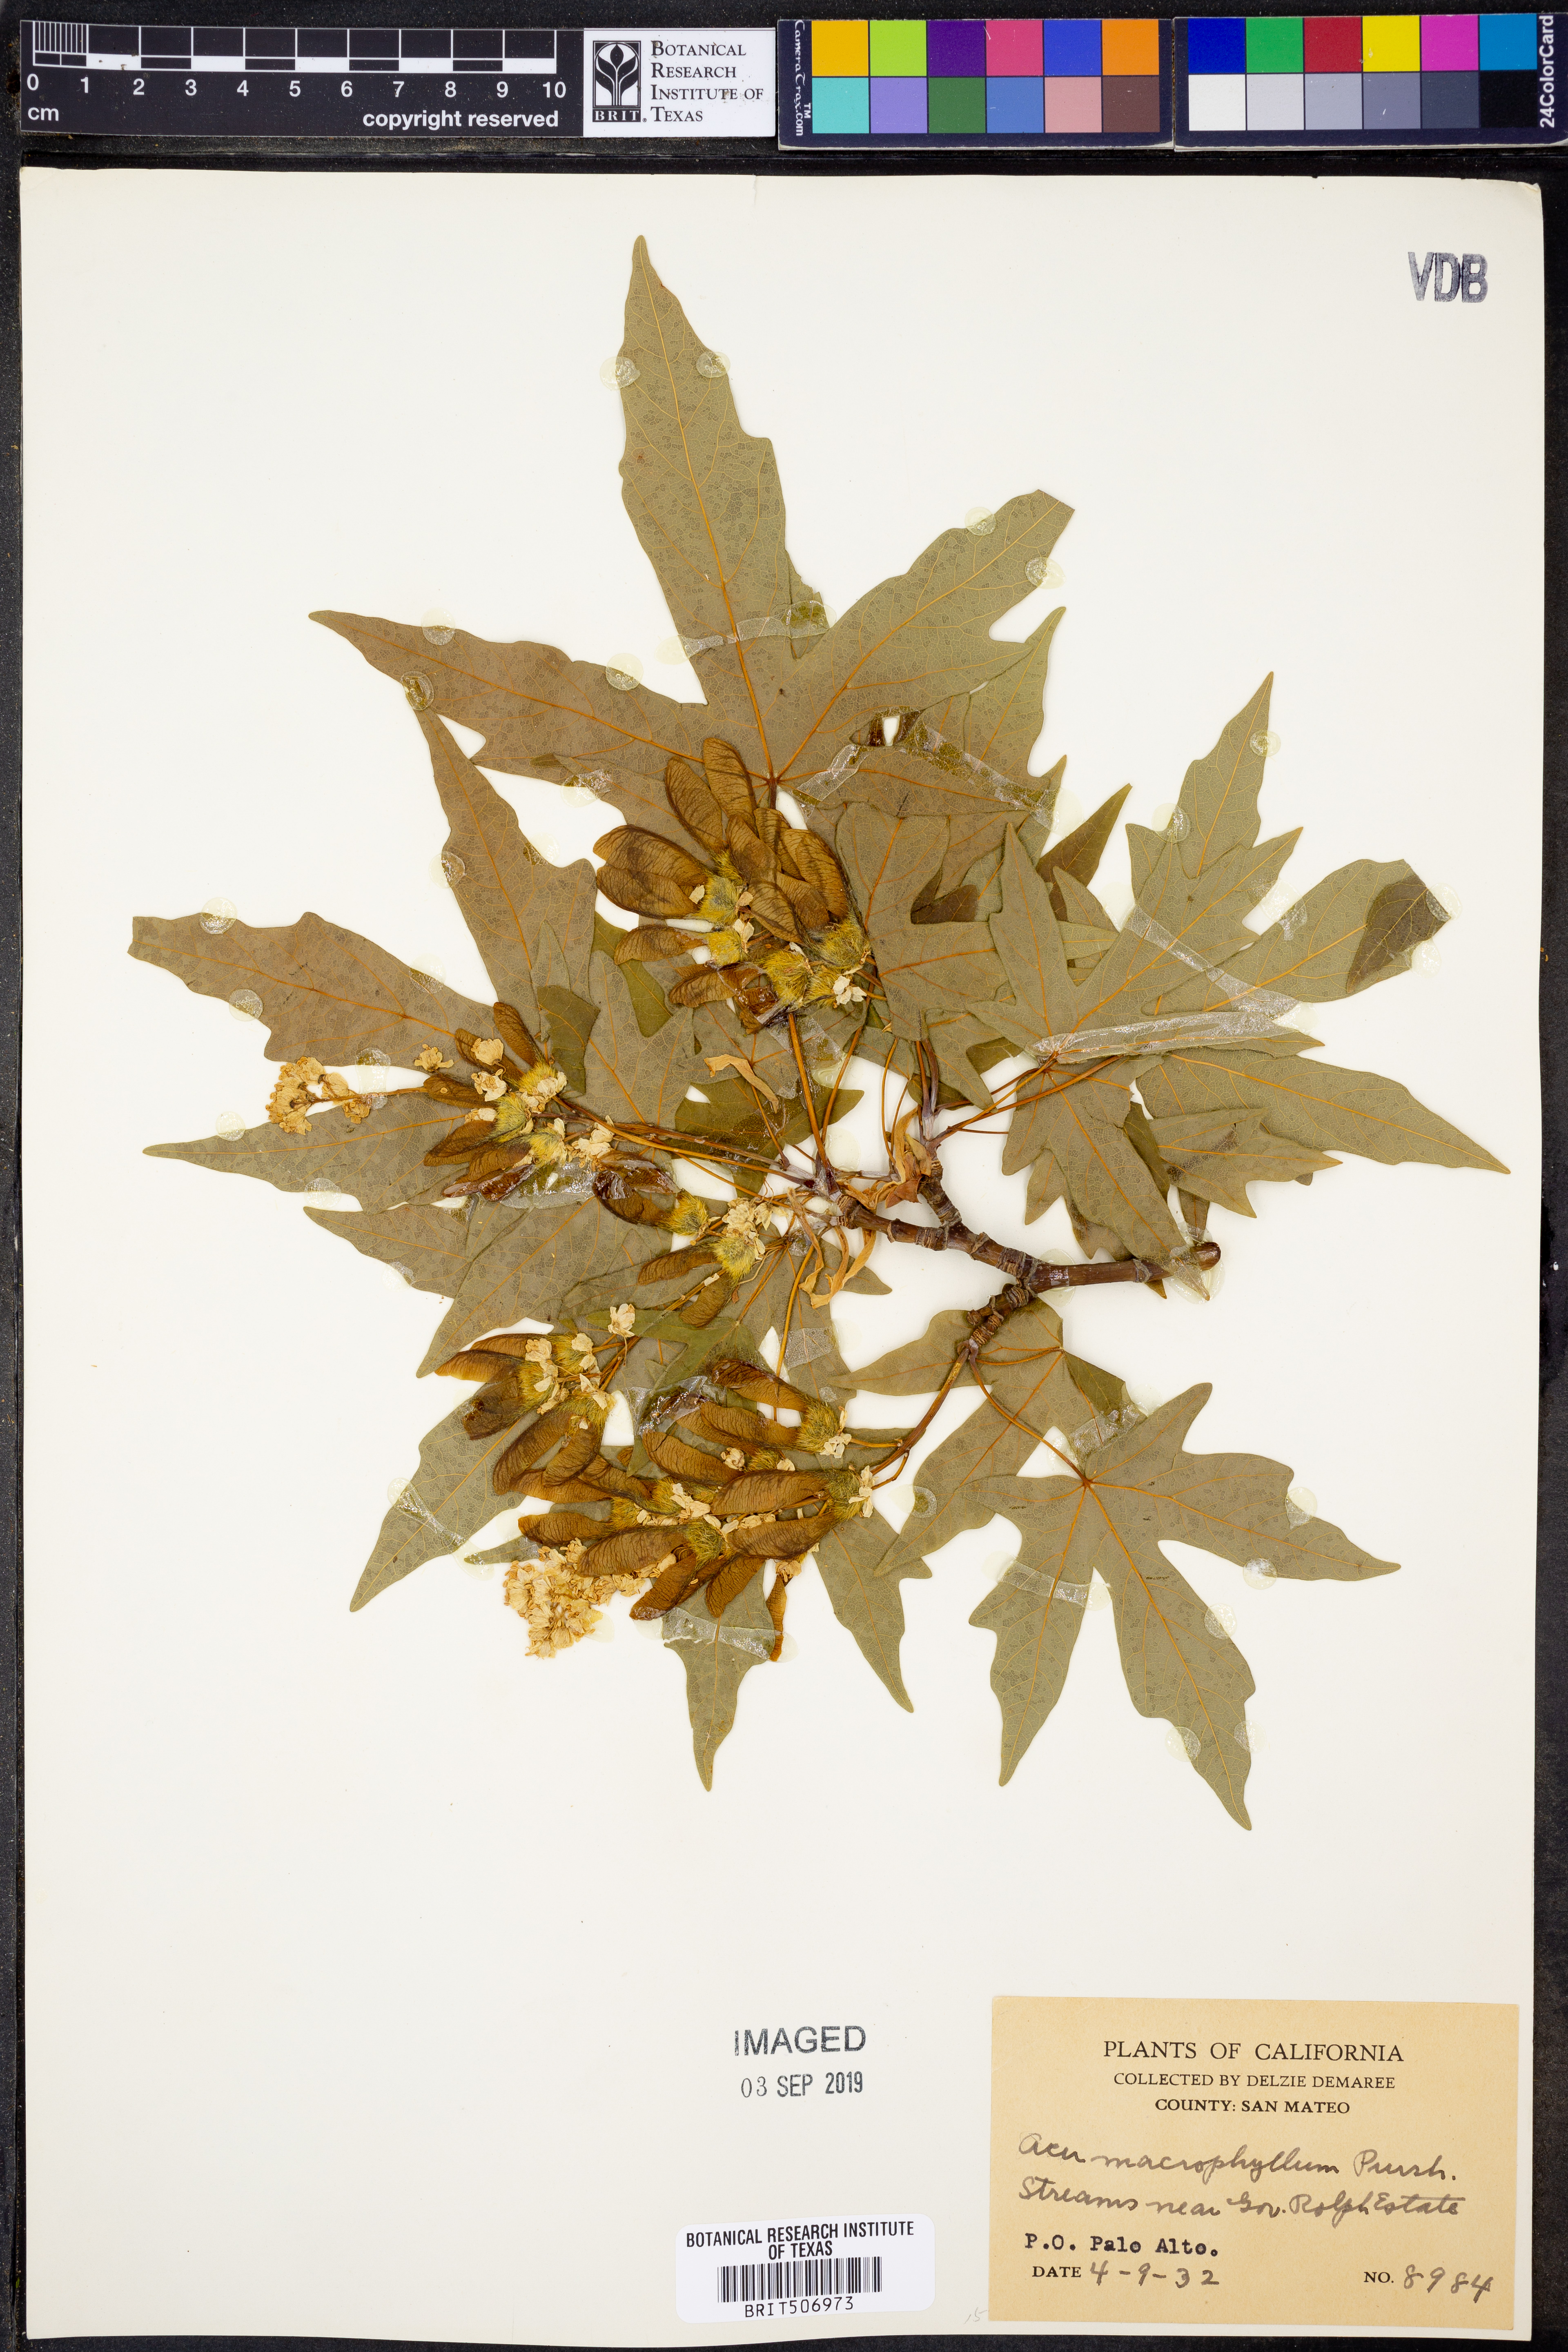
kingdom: Plantae
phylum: Tracheophyta
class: Magnoliopsida
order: Sapindales
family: Sapindaceae
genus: Acer
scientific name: Acer macrophyllum
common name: Oregon maple
